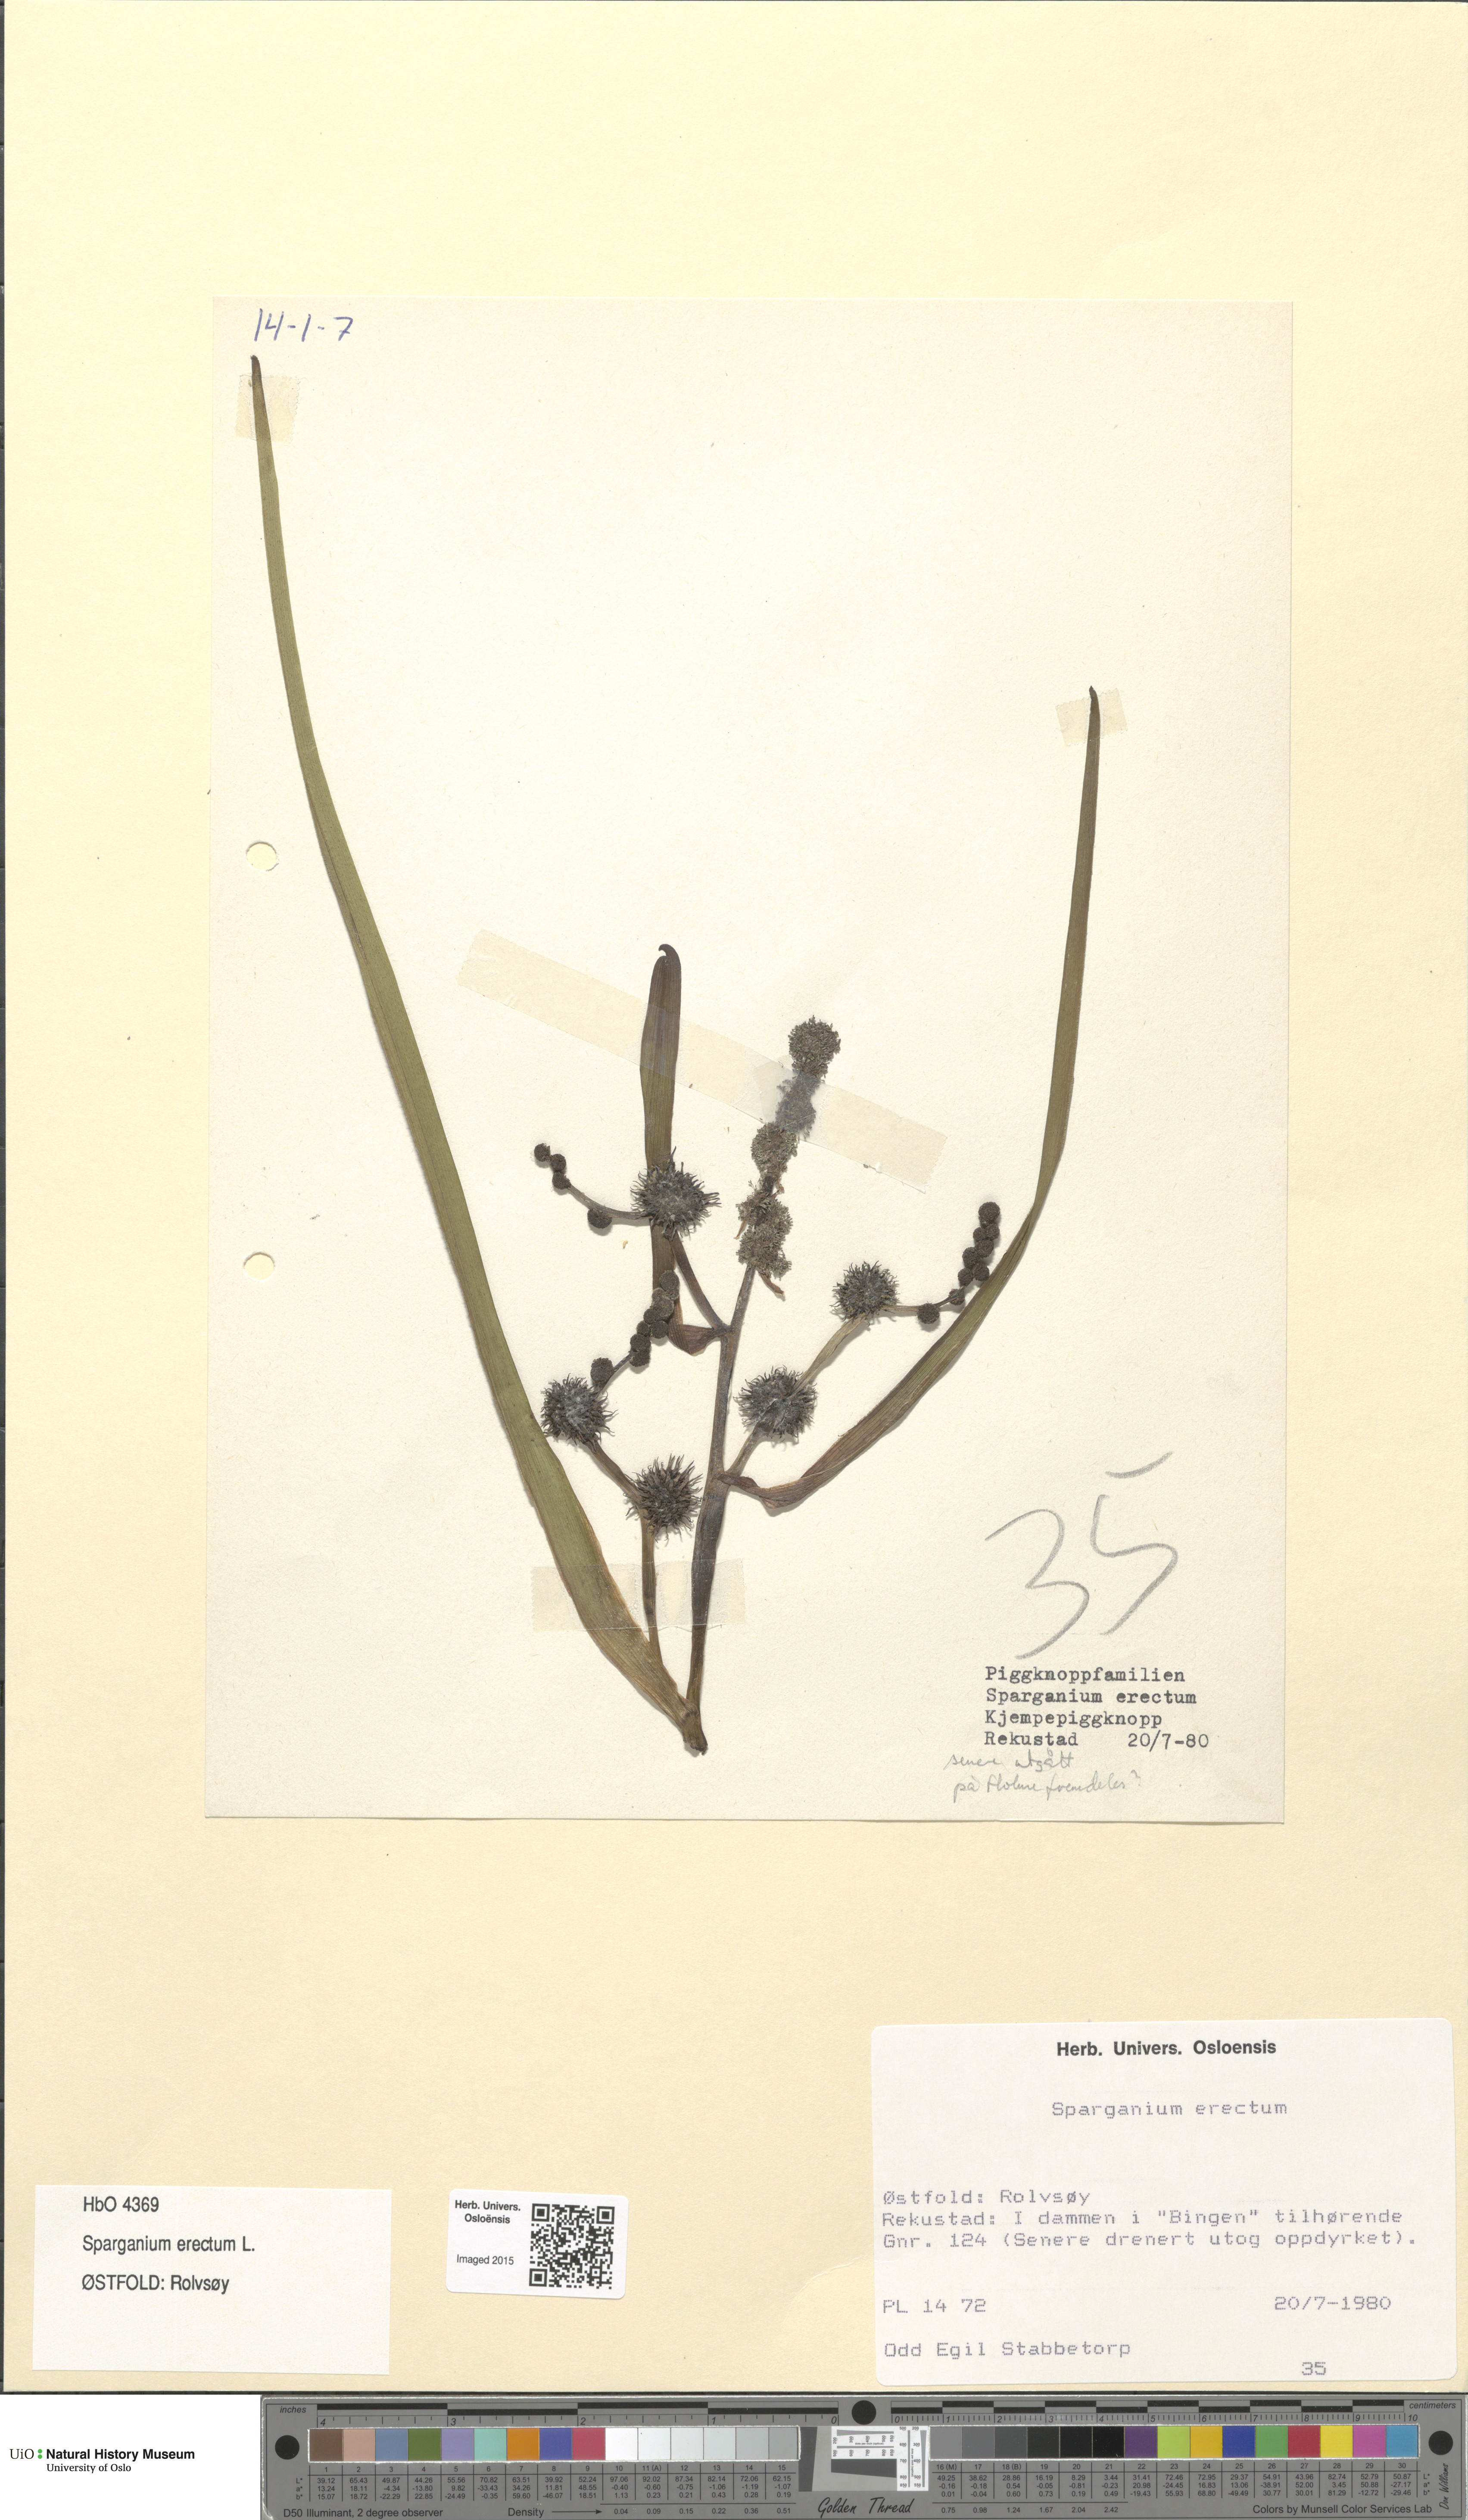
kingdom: Plantae
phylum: Tracheophyta
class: Liliopsida
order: Poales
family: Typhaceae
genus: Sparganium
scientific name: Sparganium erectum
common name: Branched bur-reed
